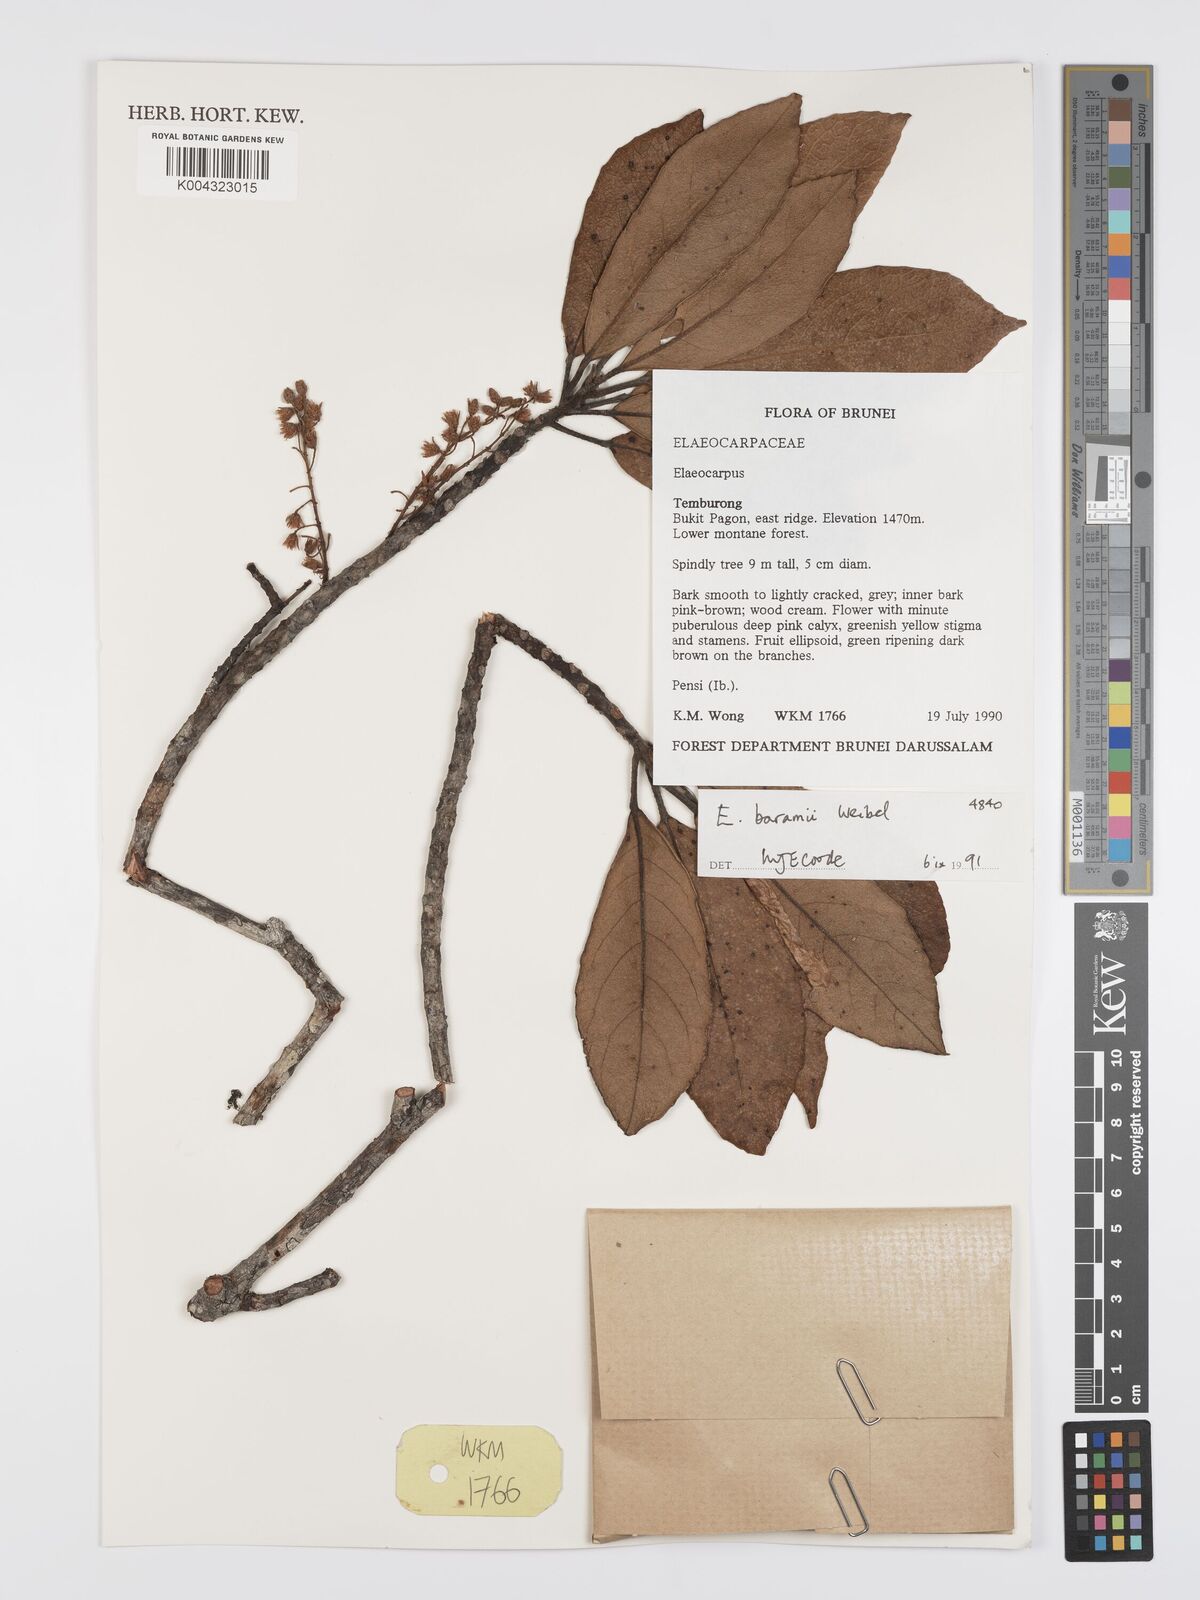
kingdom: Plantae
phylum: Tracheophyta
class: Magnoliopsida
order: Oxalidales
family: Elaeocarpaceae
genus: Elaeocarpus
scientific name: Elaeocarpus baramii
